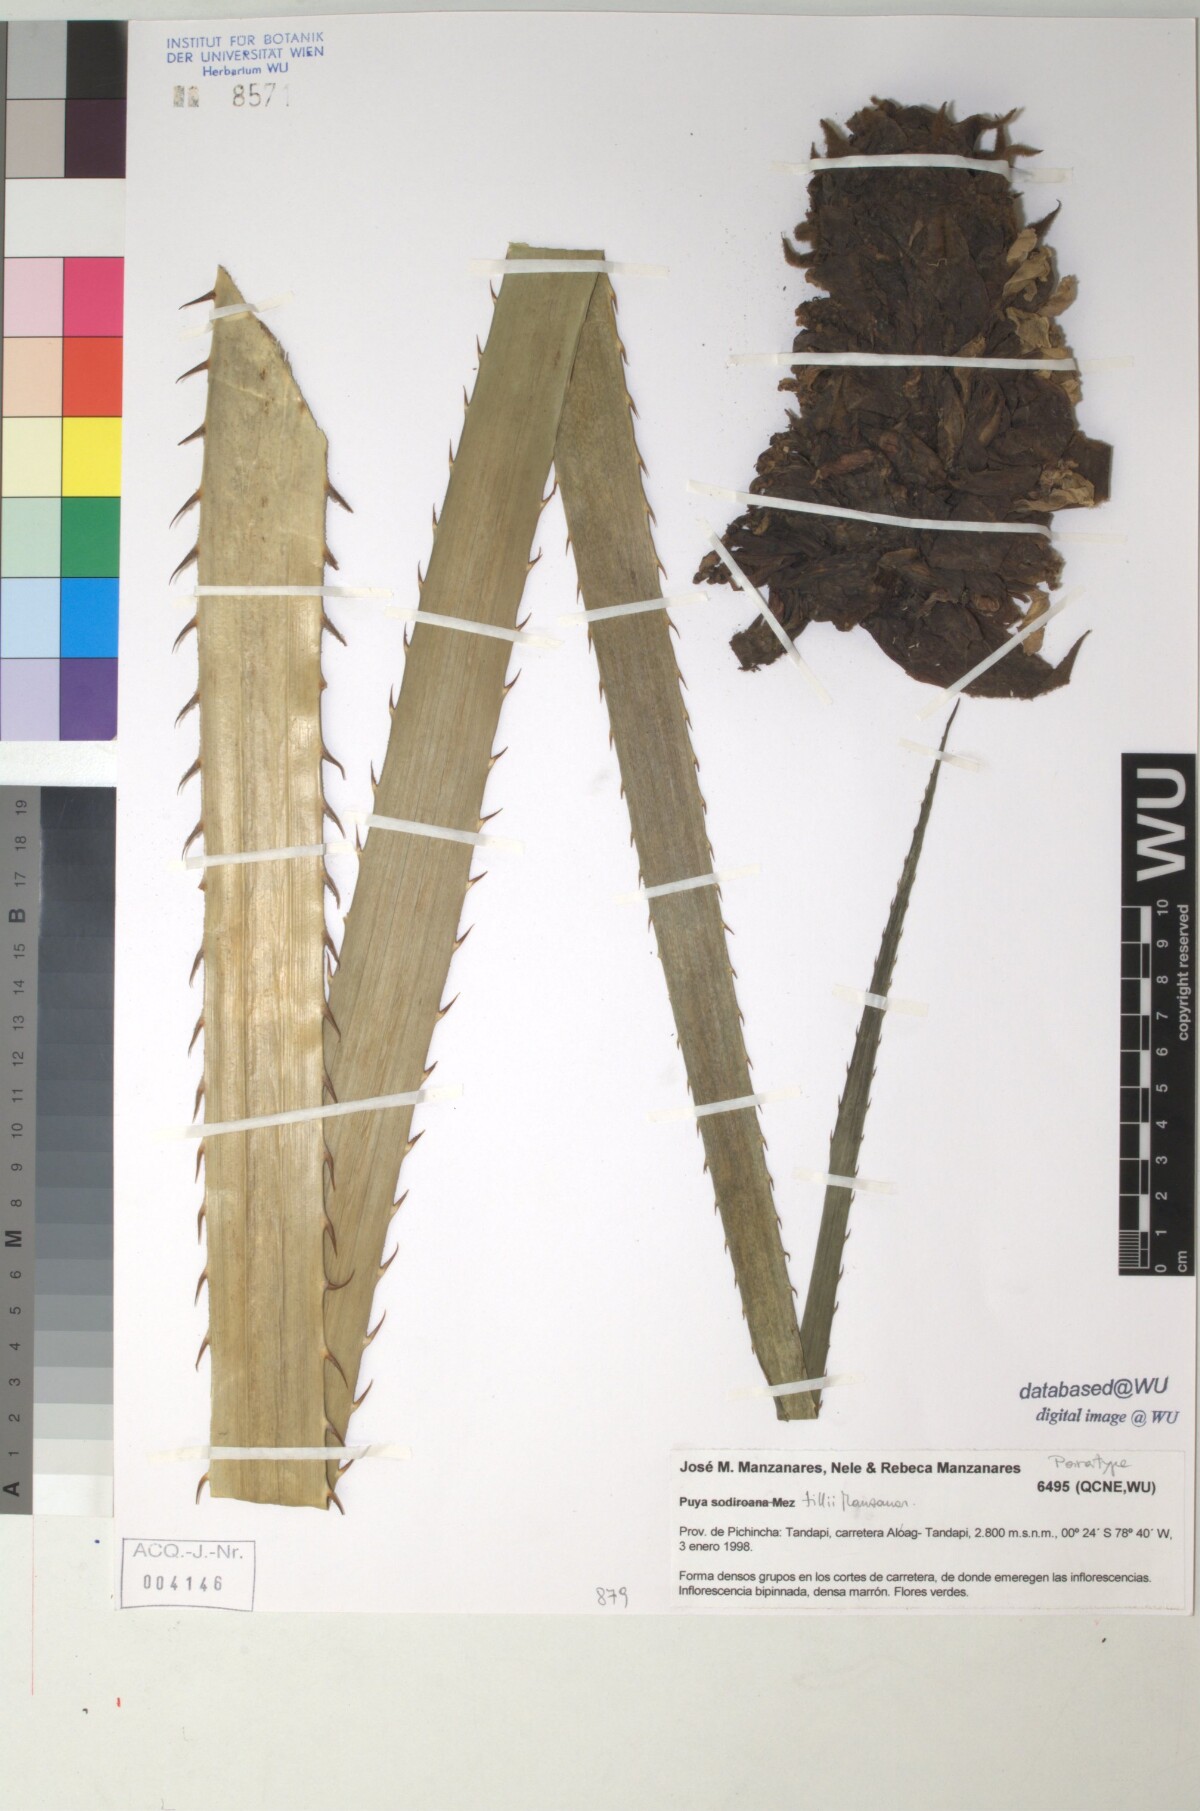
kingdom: Plantae
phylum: Tracheophyta
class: Liliopsida
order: Poales
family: Bromeliaceae
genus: Puya
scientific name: Puya tillii
